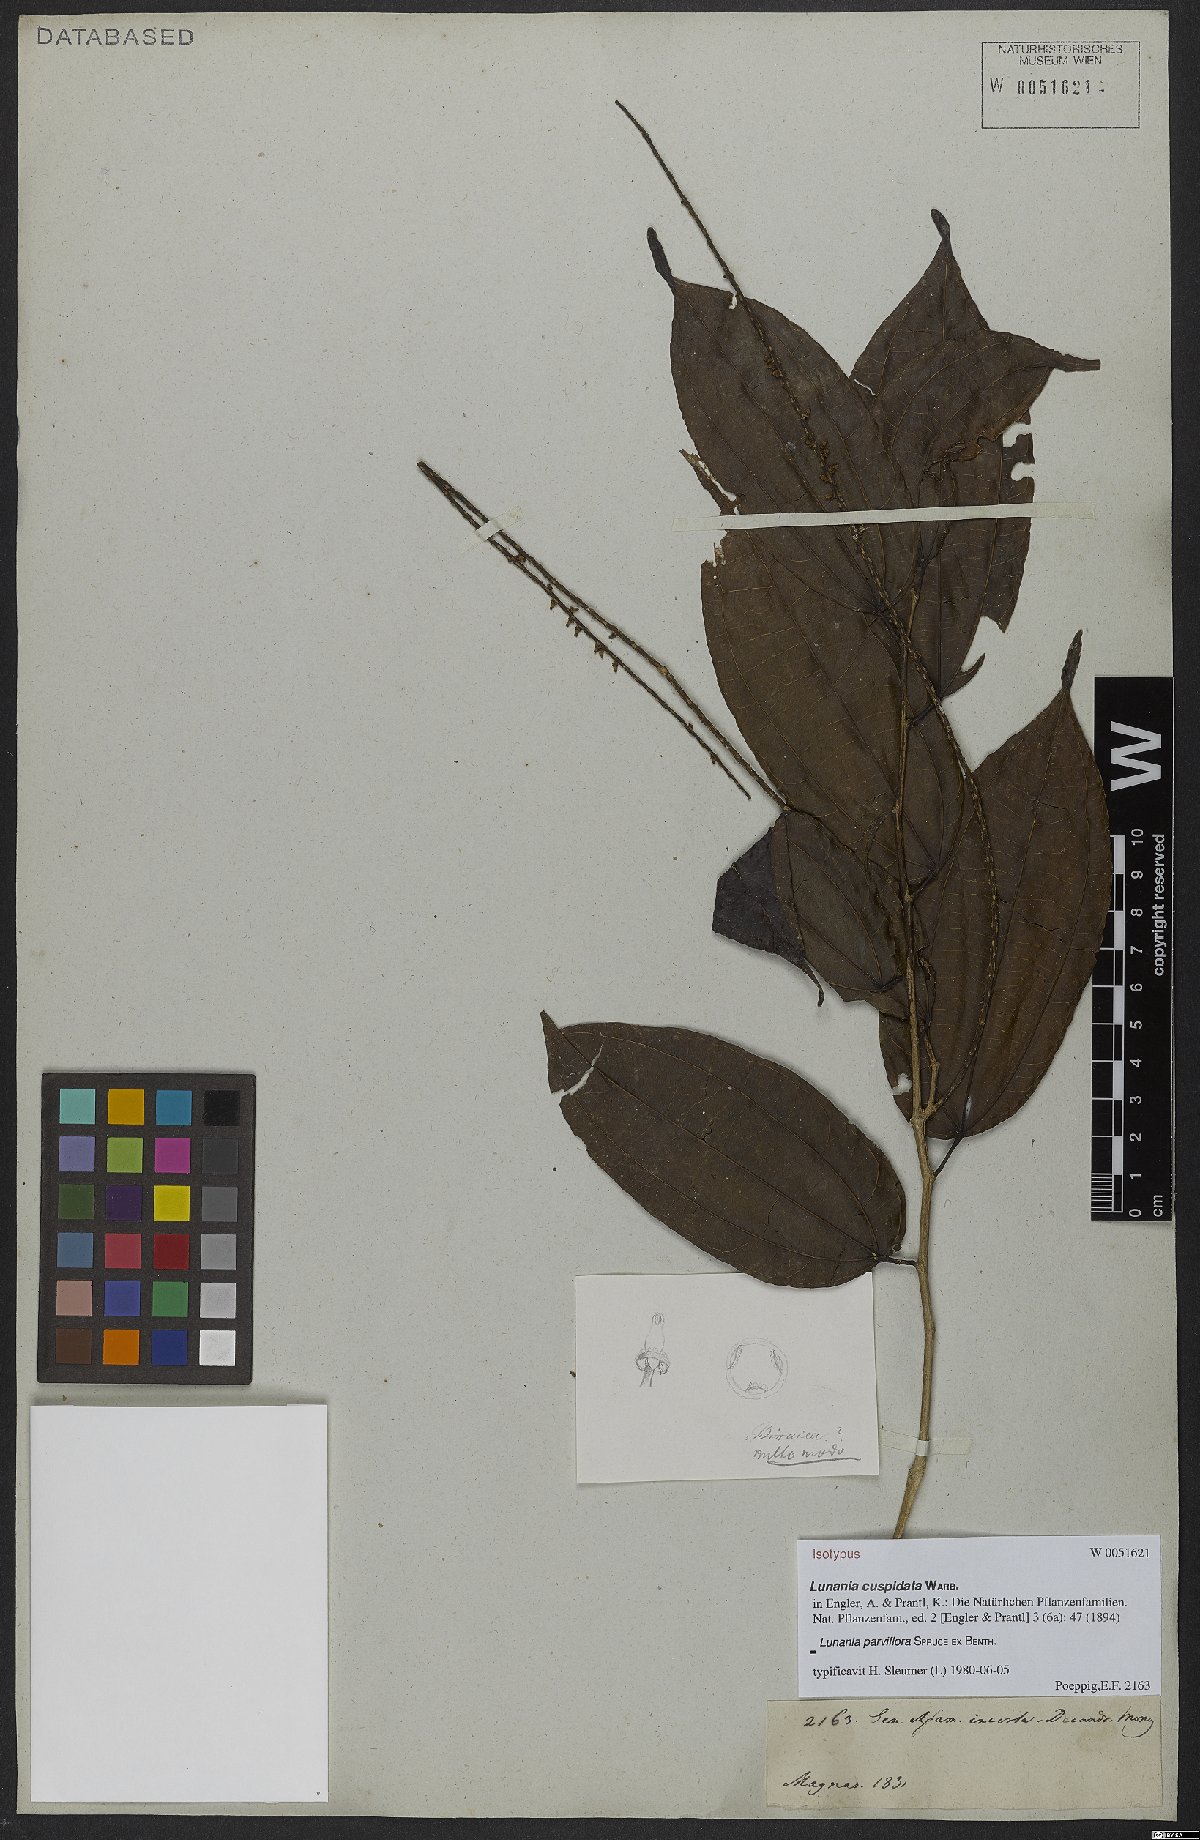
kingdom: Plantae
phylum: Tracheophyta
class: Magnoliopsida
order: Malpighiales
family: Salicaceae
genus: Lunania
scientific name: Lunania parviflora
